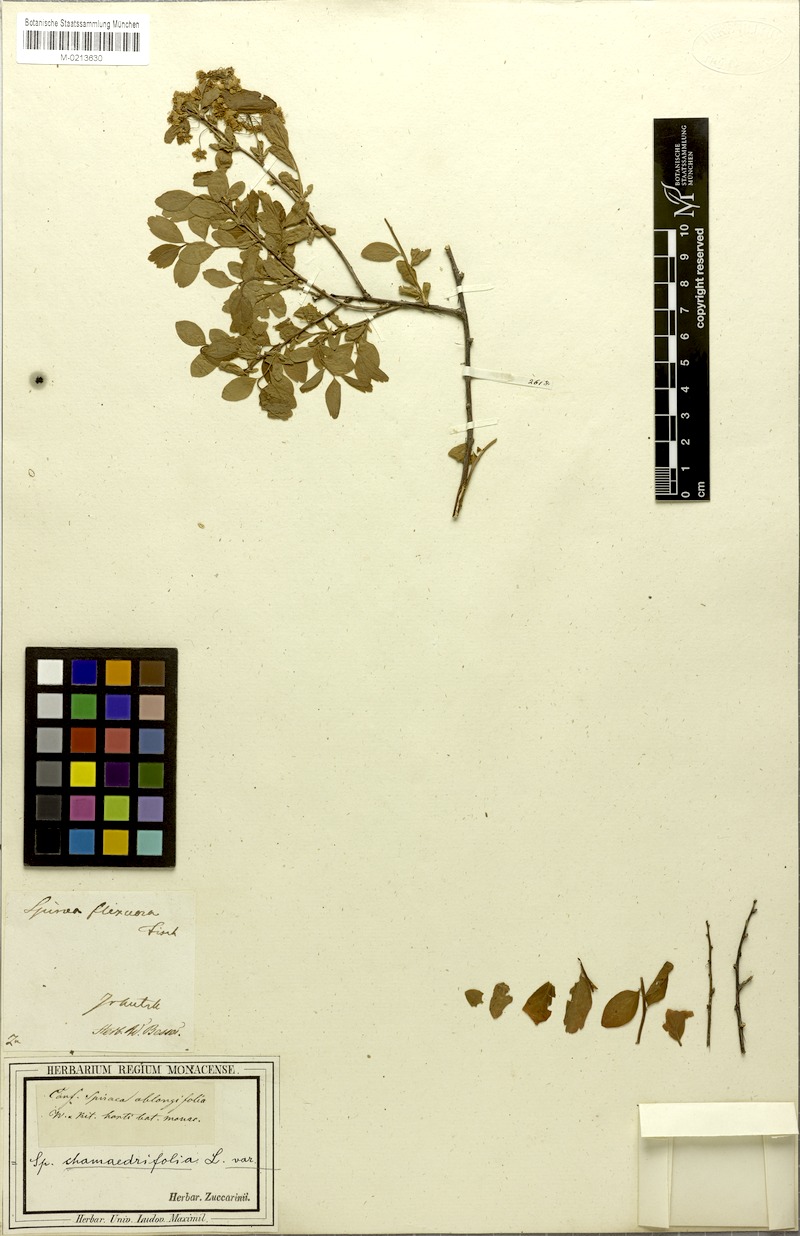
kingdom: Plantae
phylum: Tracheophyta
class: Magnoliopsida
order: Rosales
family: Rosaceae
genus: Spiraea
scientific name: Spiraea flexuosa
